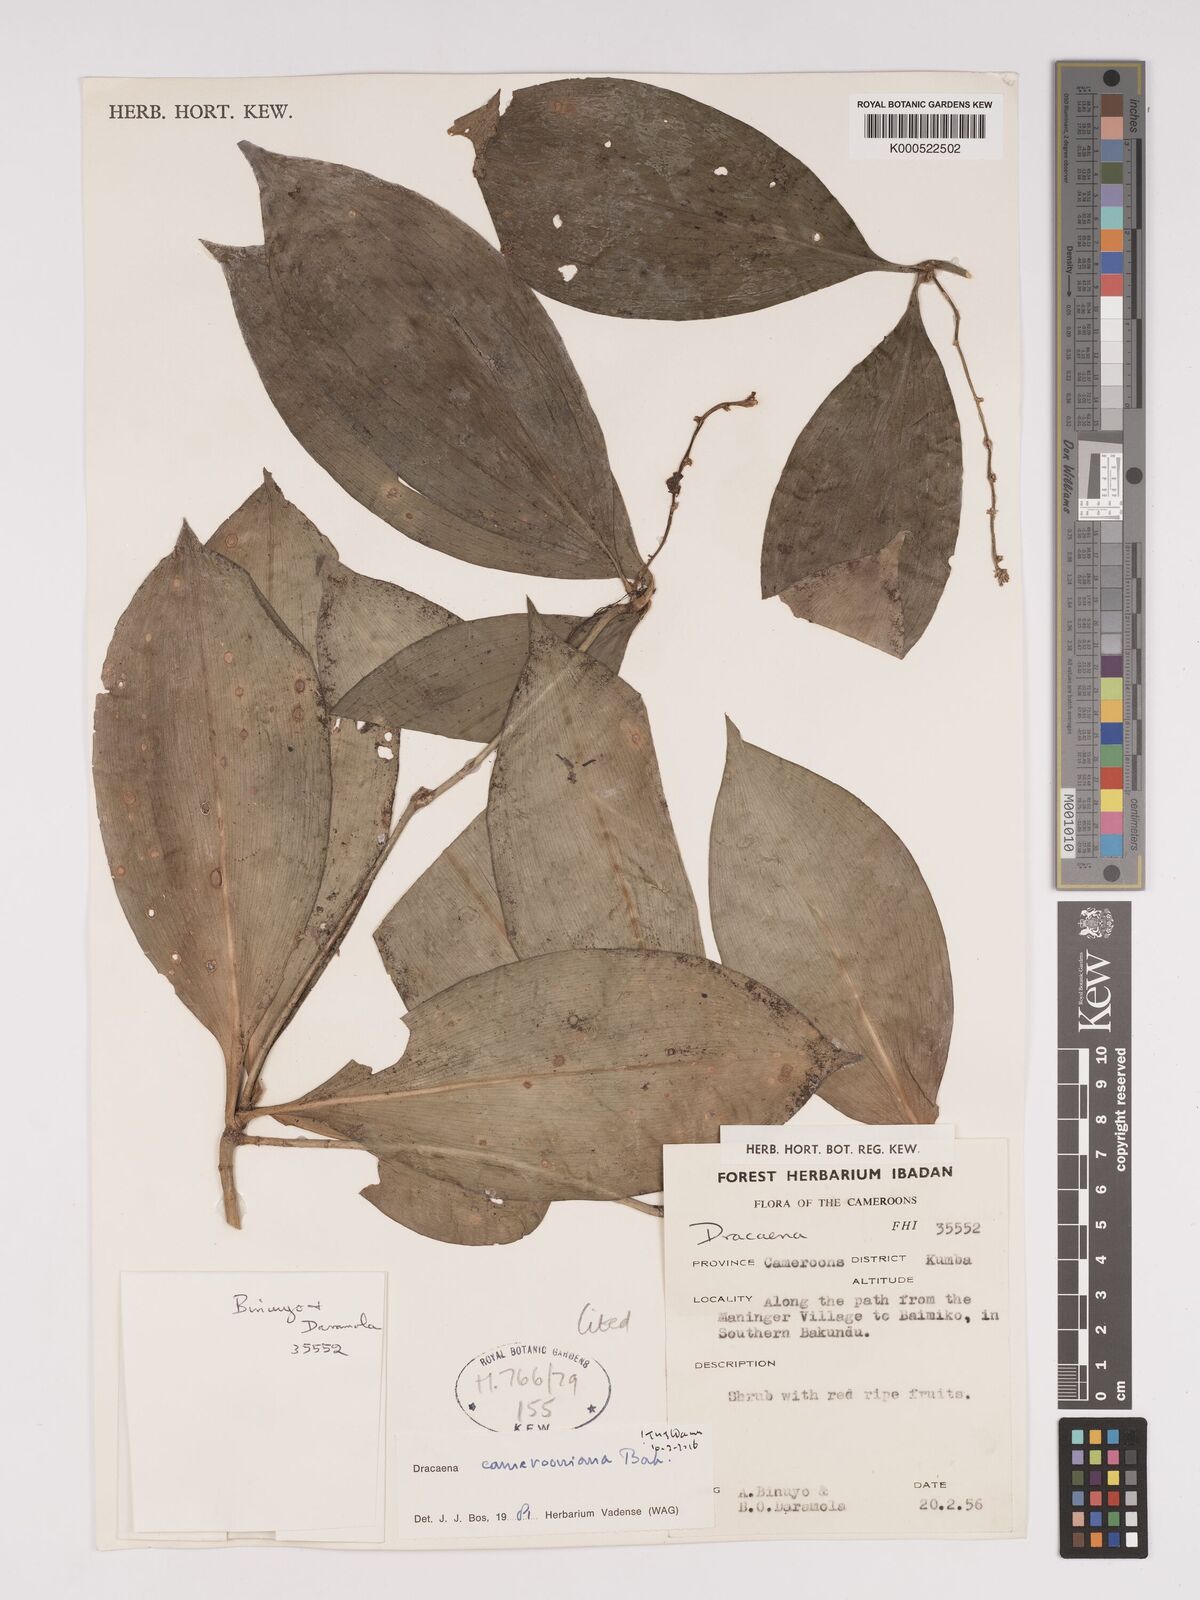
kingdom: Plantae
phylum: Tracheophyta
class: Liliopsida
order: Asparagales
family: Asparagaceae
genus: Dracaena
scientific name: Dracaena camerooniana
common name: Dragon tree
